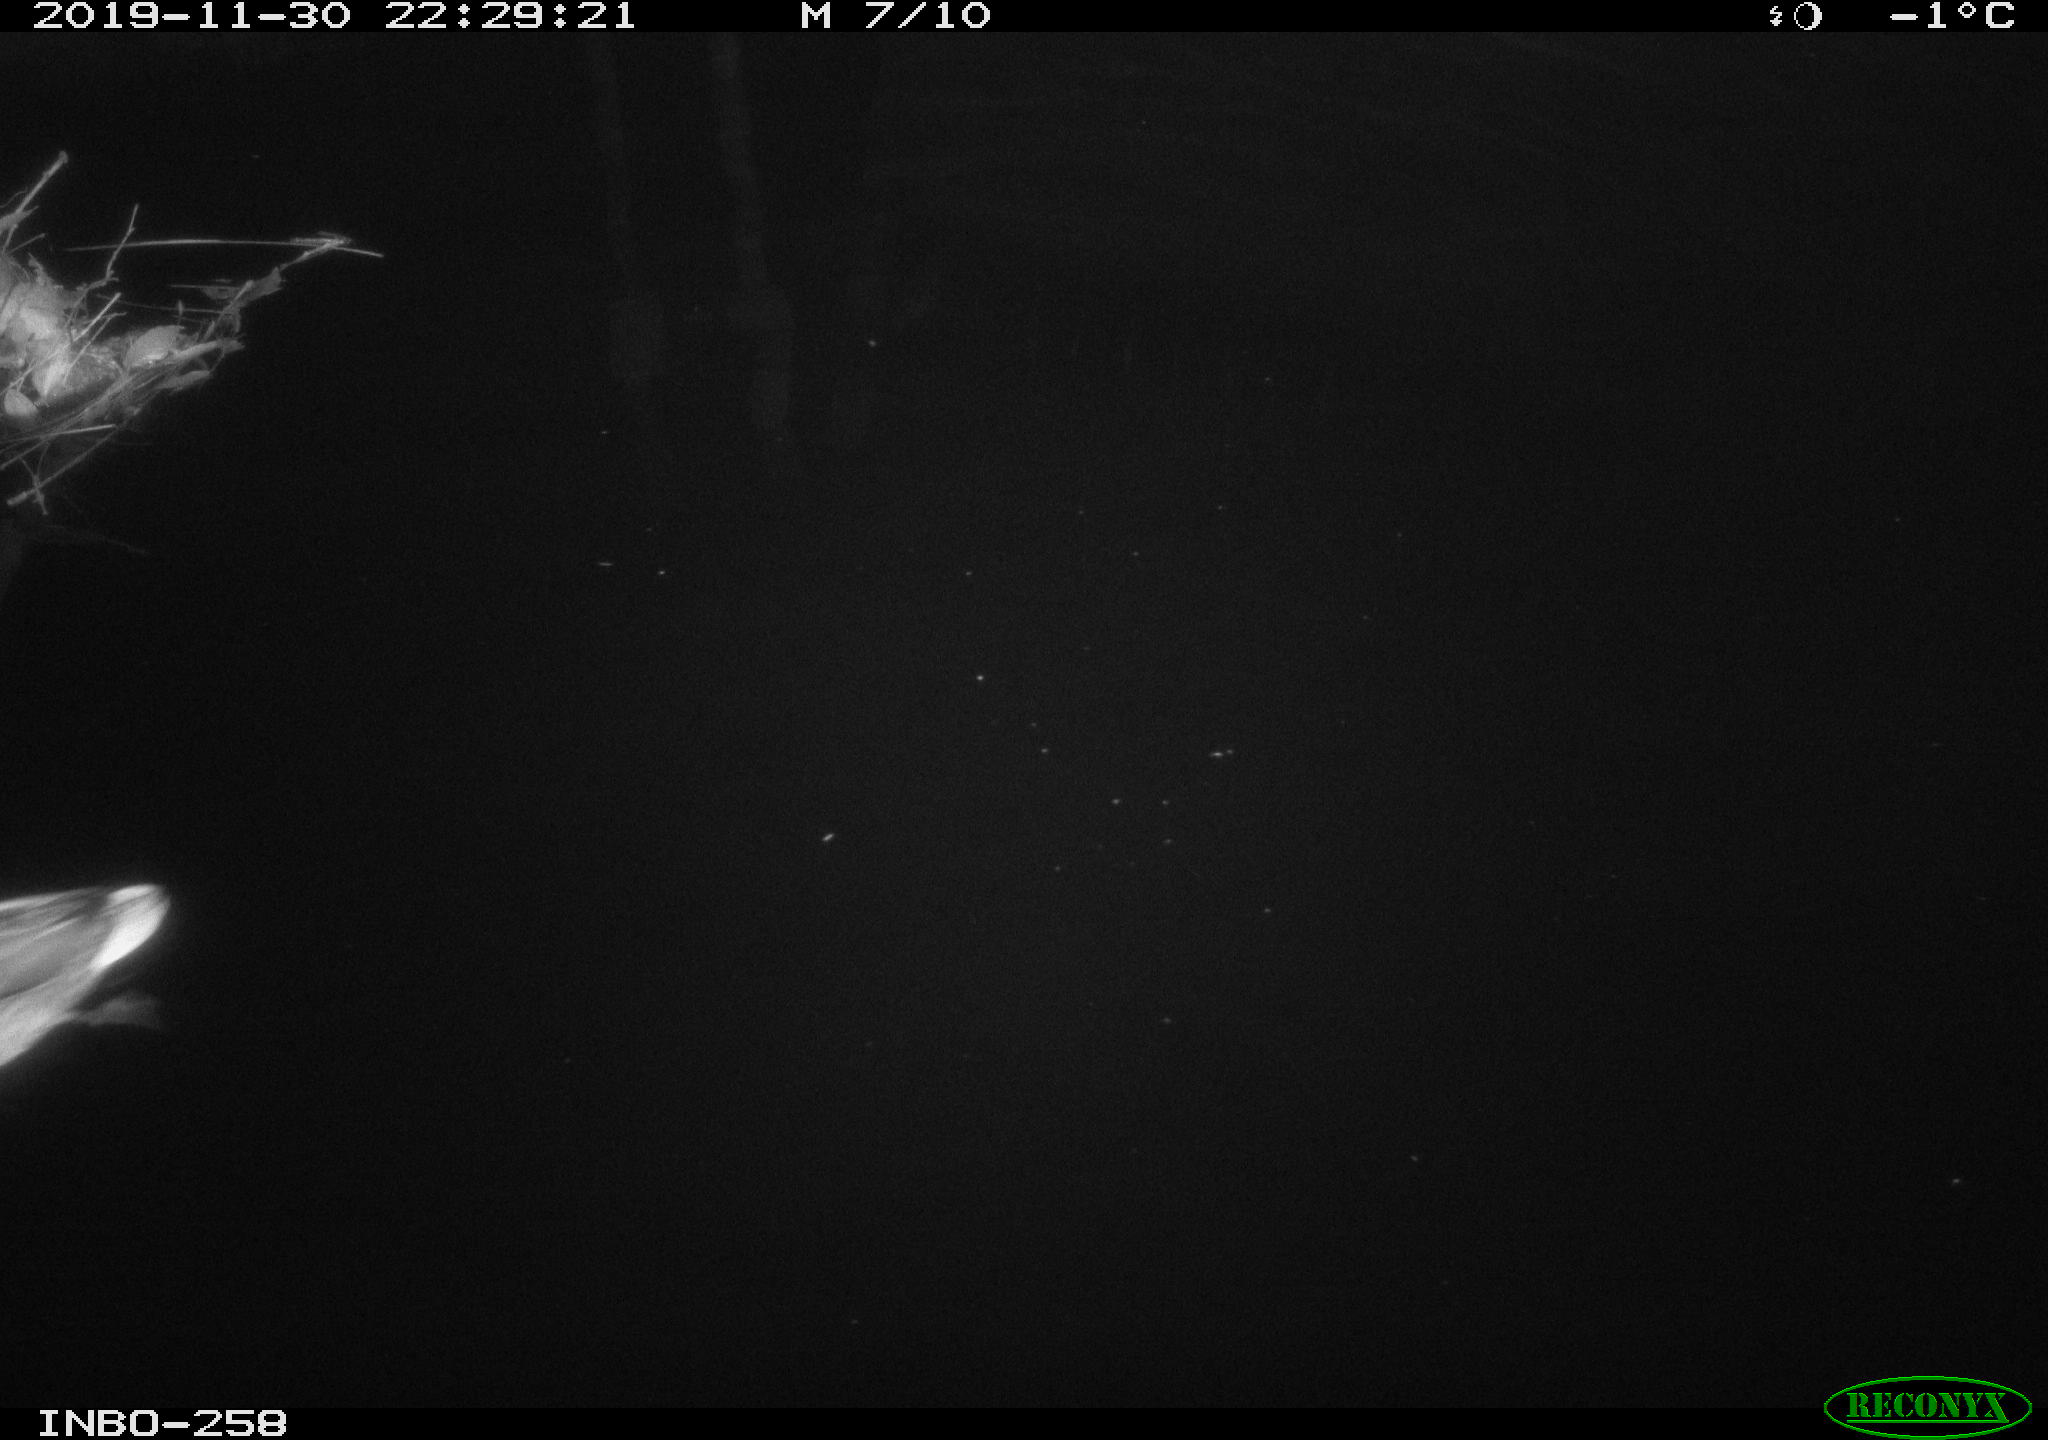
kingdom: Animalia
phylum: Chordata
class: Aves
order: Anseriformes
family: Anatidae
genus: Anas
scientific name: Anas platyrhynchos
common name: Mallard
